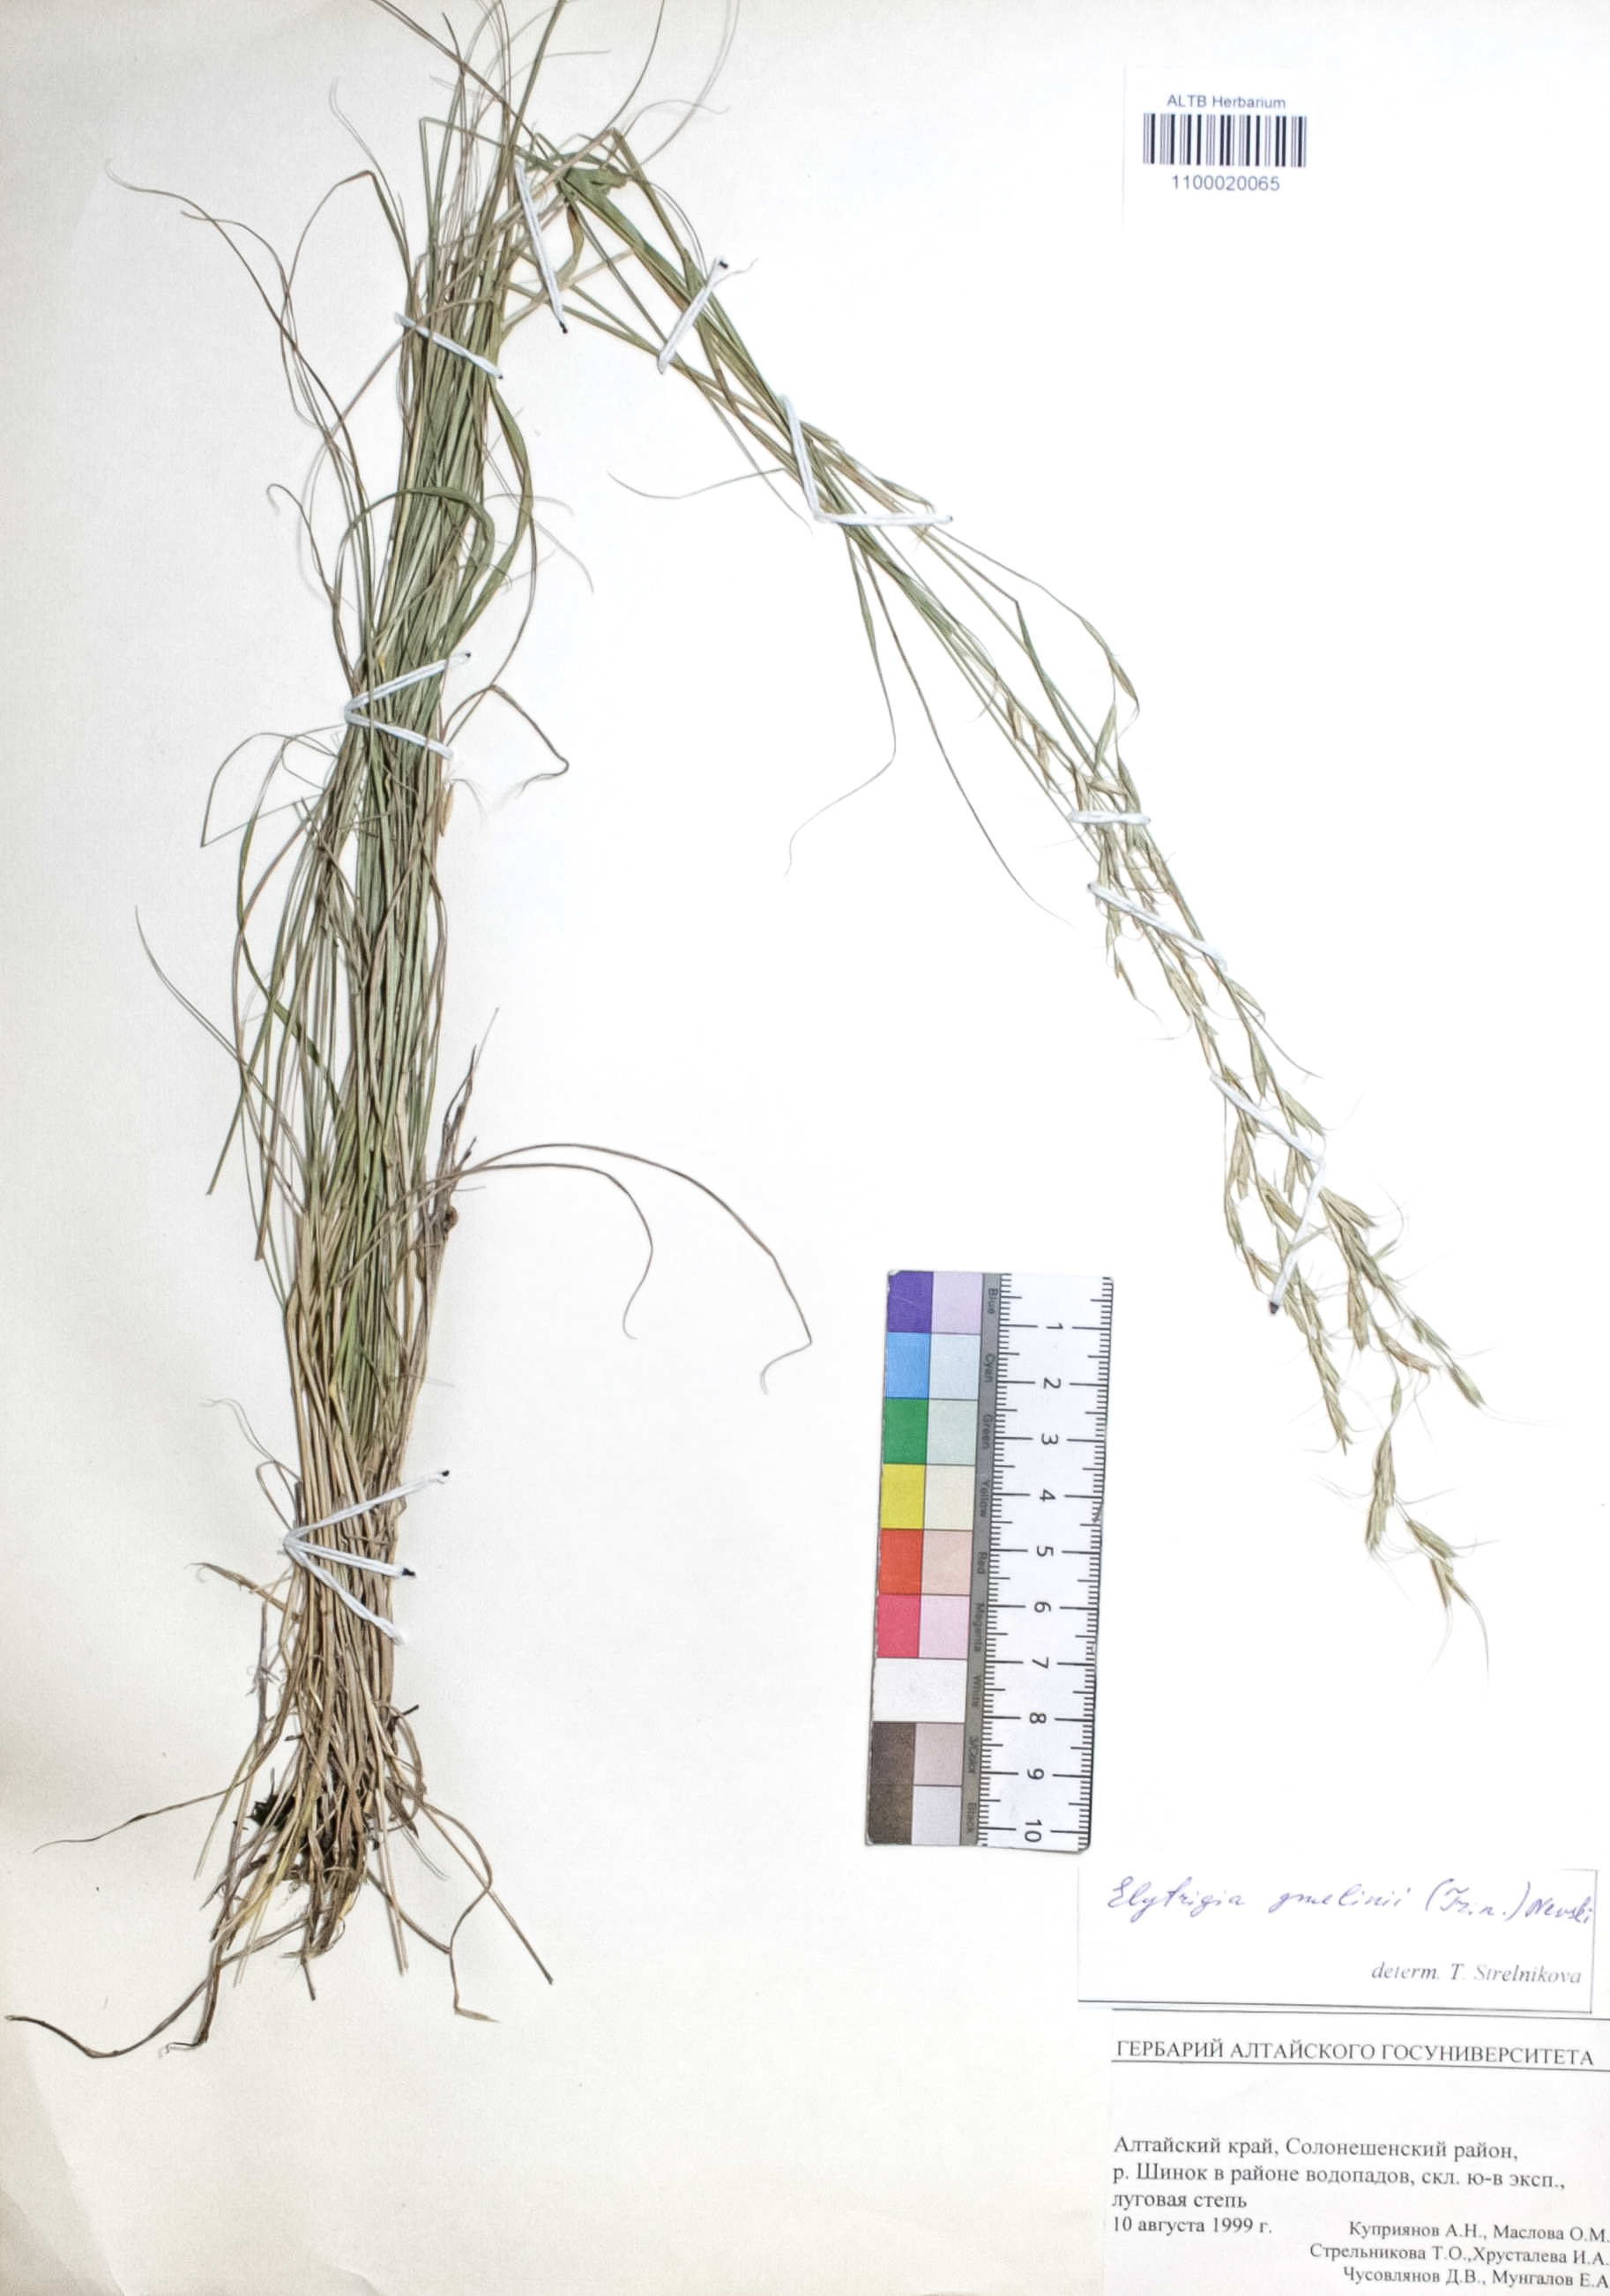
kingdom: Plantae
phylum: Tracheophyta
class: Liliopsida
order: Poales
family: Poaceae
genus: Pseudoroegneria
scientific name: Pseudoroegneria reflexiaristata
